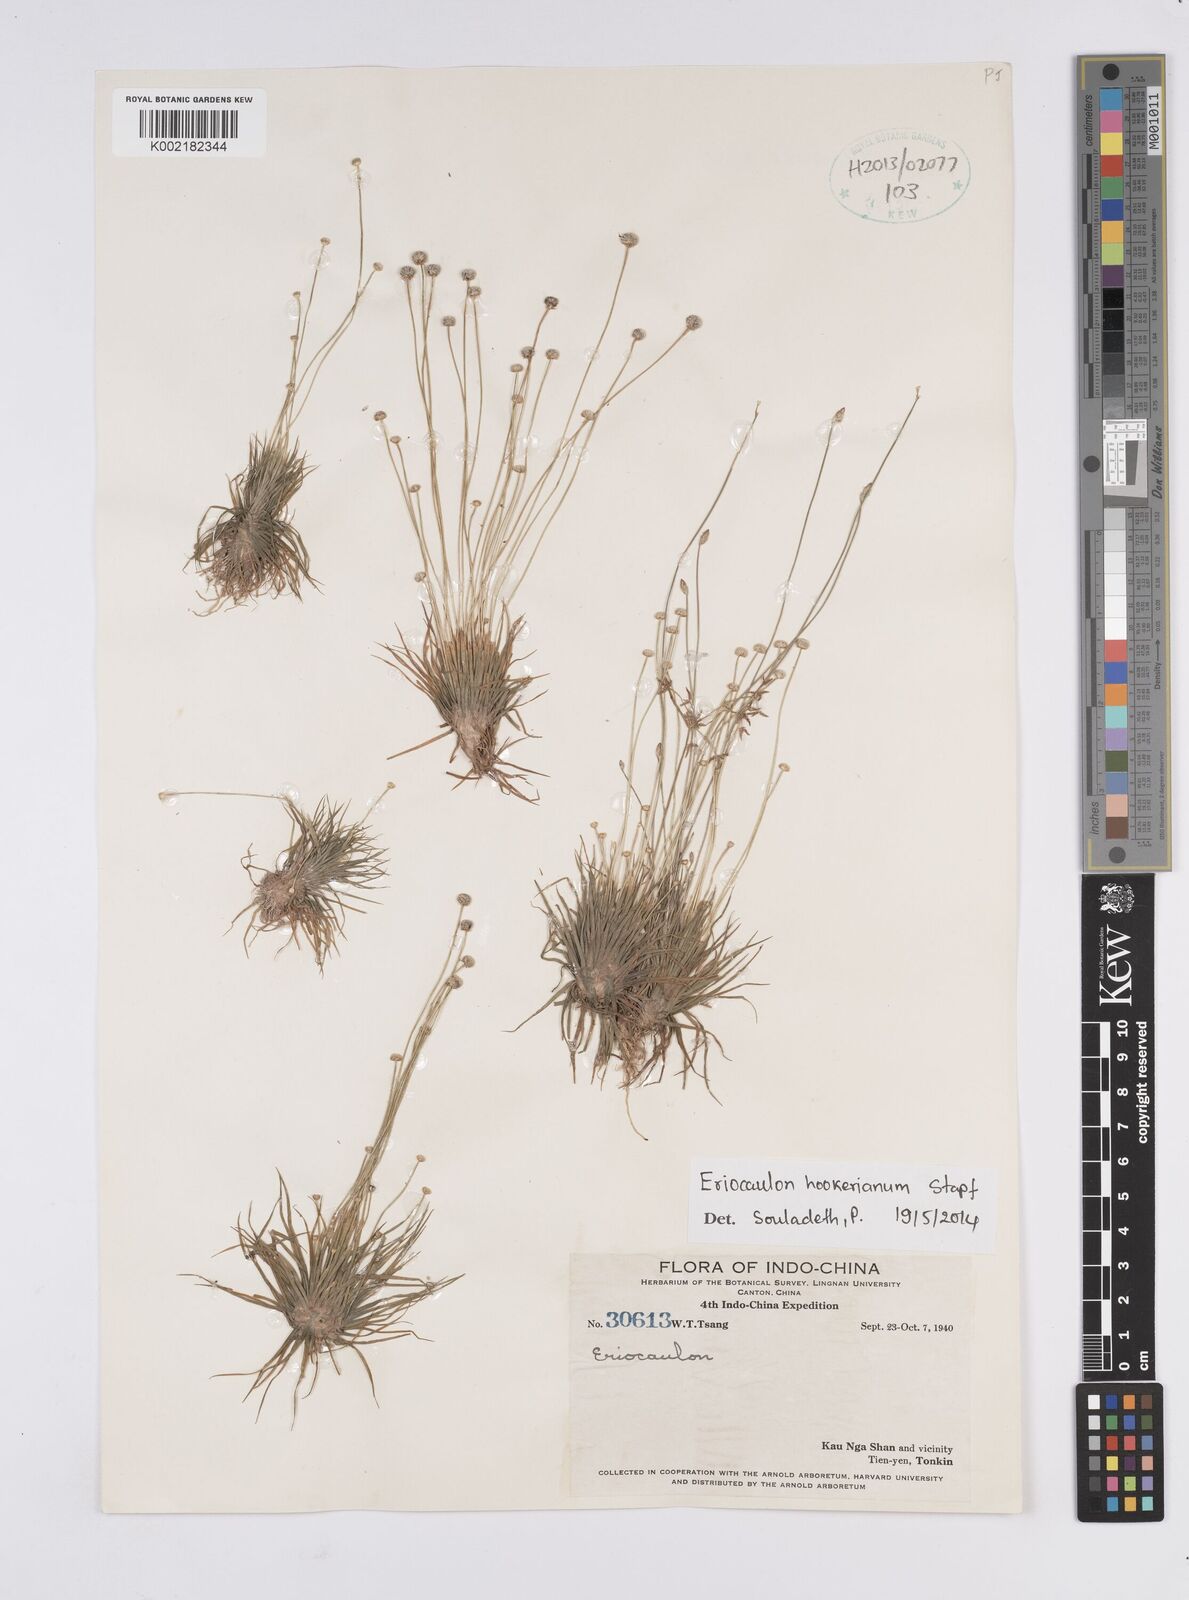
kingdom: Plantae
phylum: Tracheophyta
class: Liliopsida
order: Poales
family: Eriocaulaceae
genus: Eriocaulon
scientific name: Eriocaulon hookerianum
